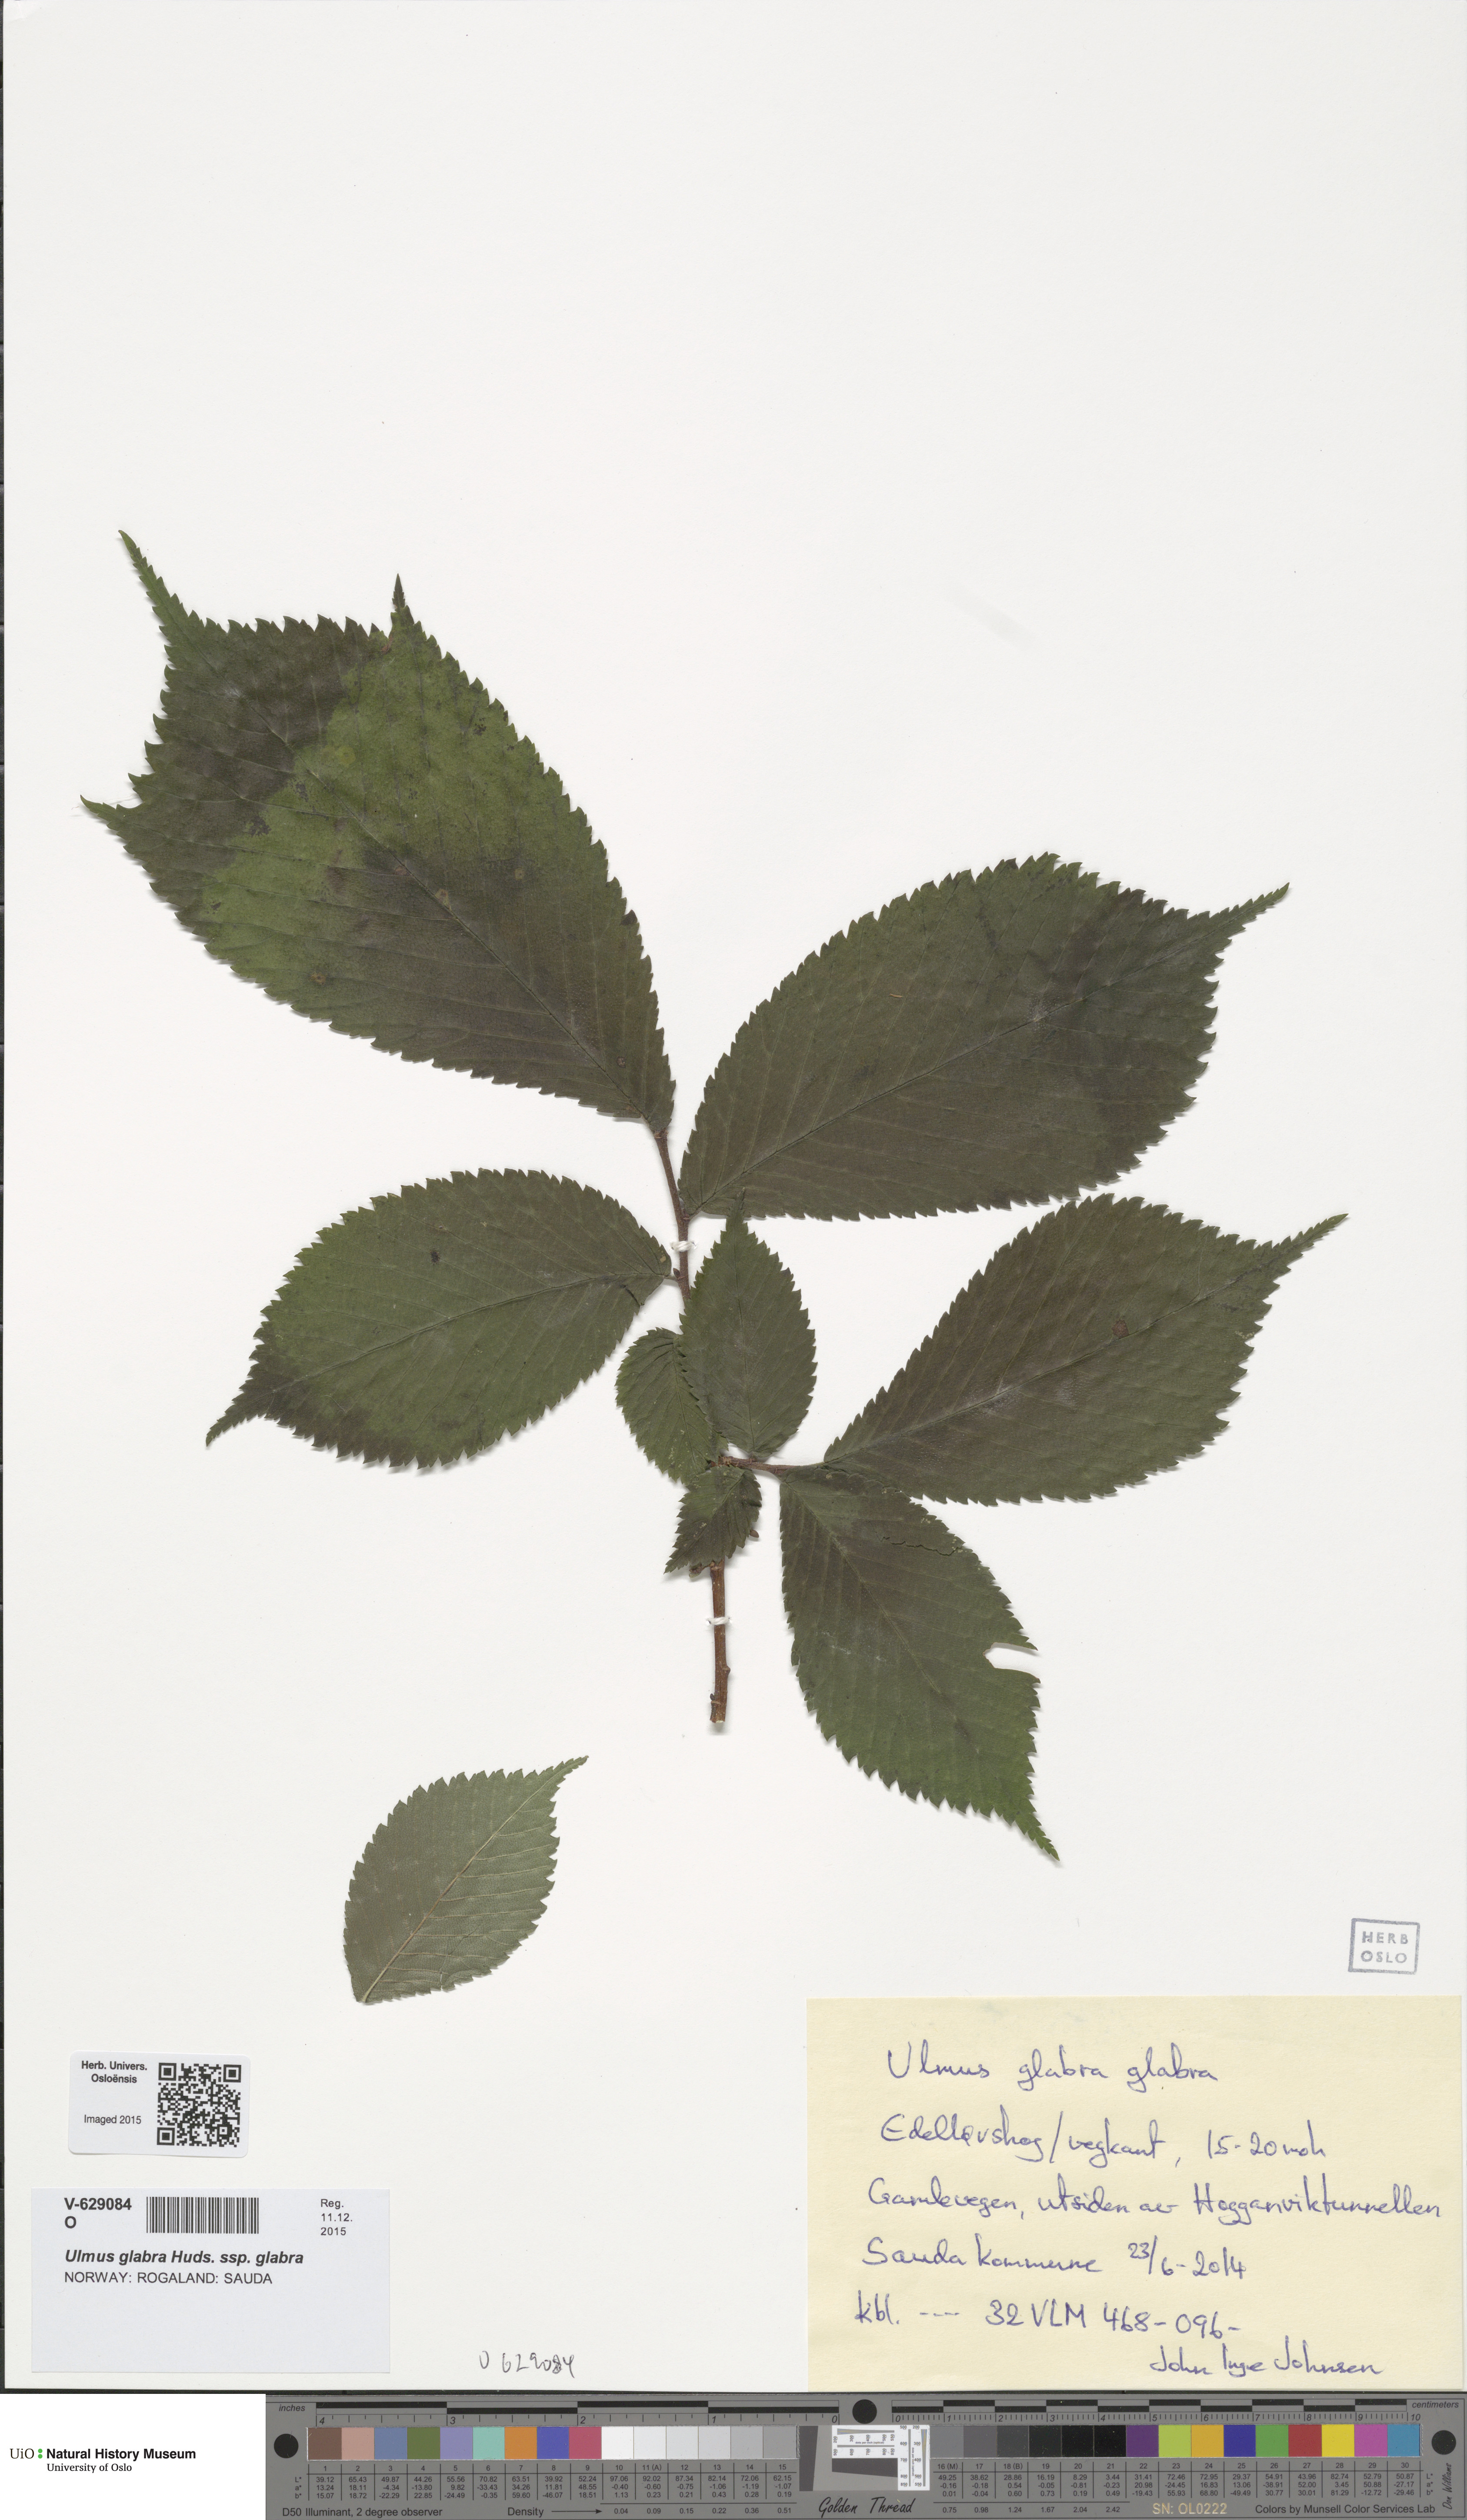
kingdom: Plantae
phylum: Tracheophyta
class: Magnoliopsida
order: Rosales
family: Ulmaceae
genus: Ulmus
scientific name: Ulmus glabra
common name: Wych elm
